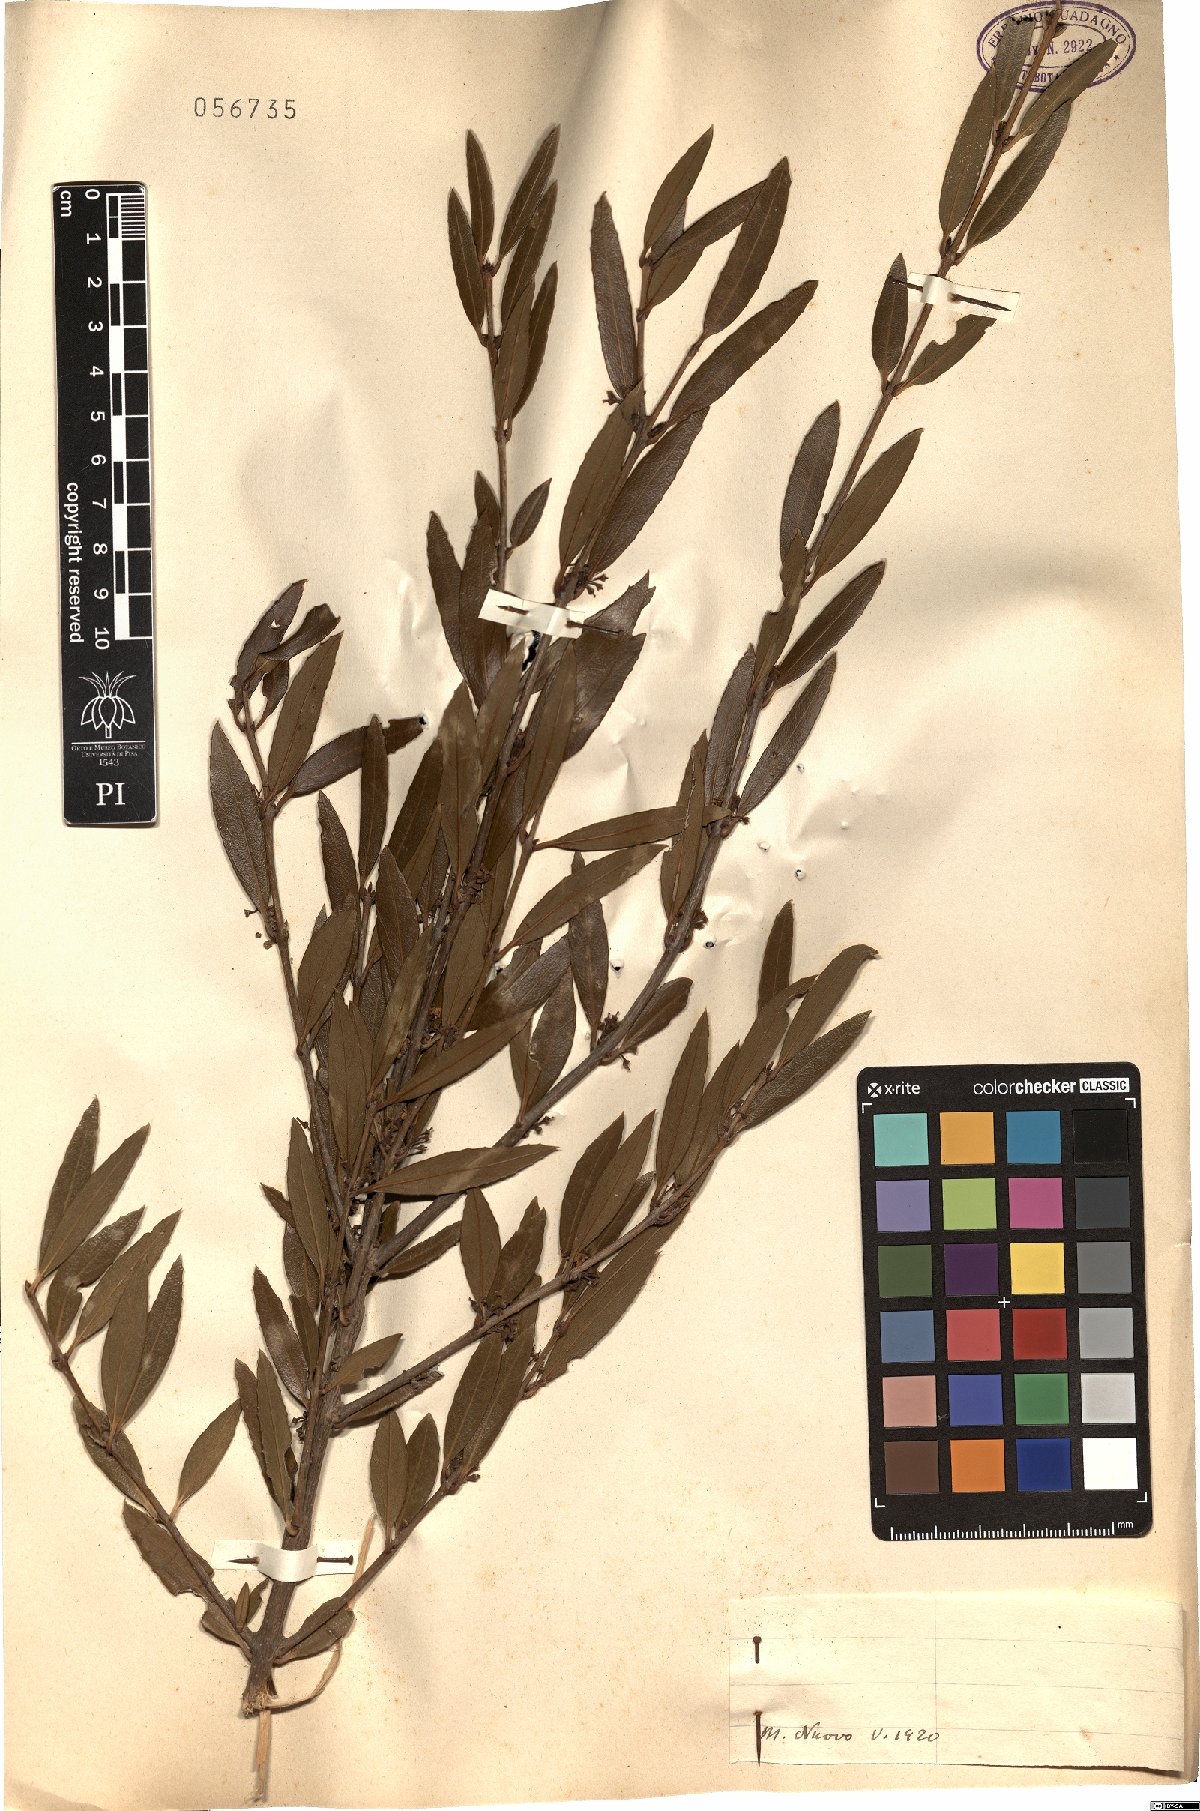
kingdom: Plantae
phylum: Tracheophyta
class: Magnoliopsida
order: Lamiales
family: Oleaceae
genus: Phillyrea
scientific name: Phillyrea
